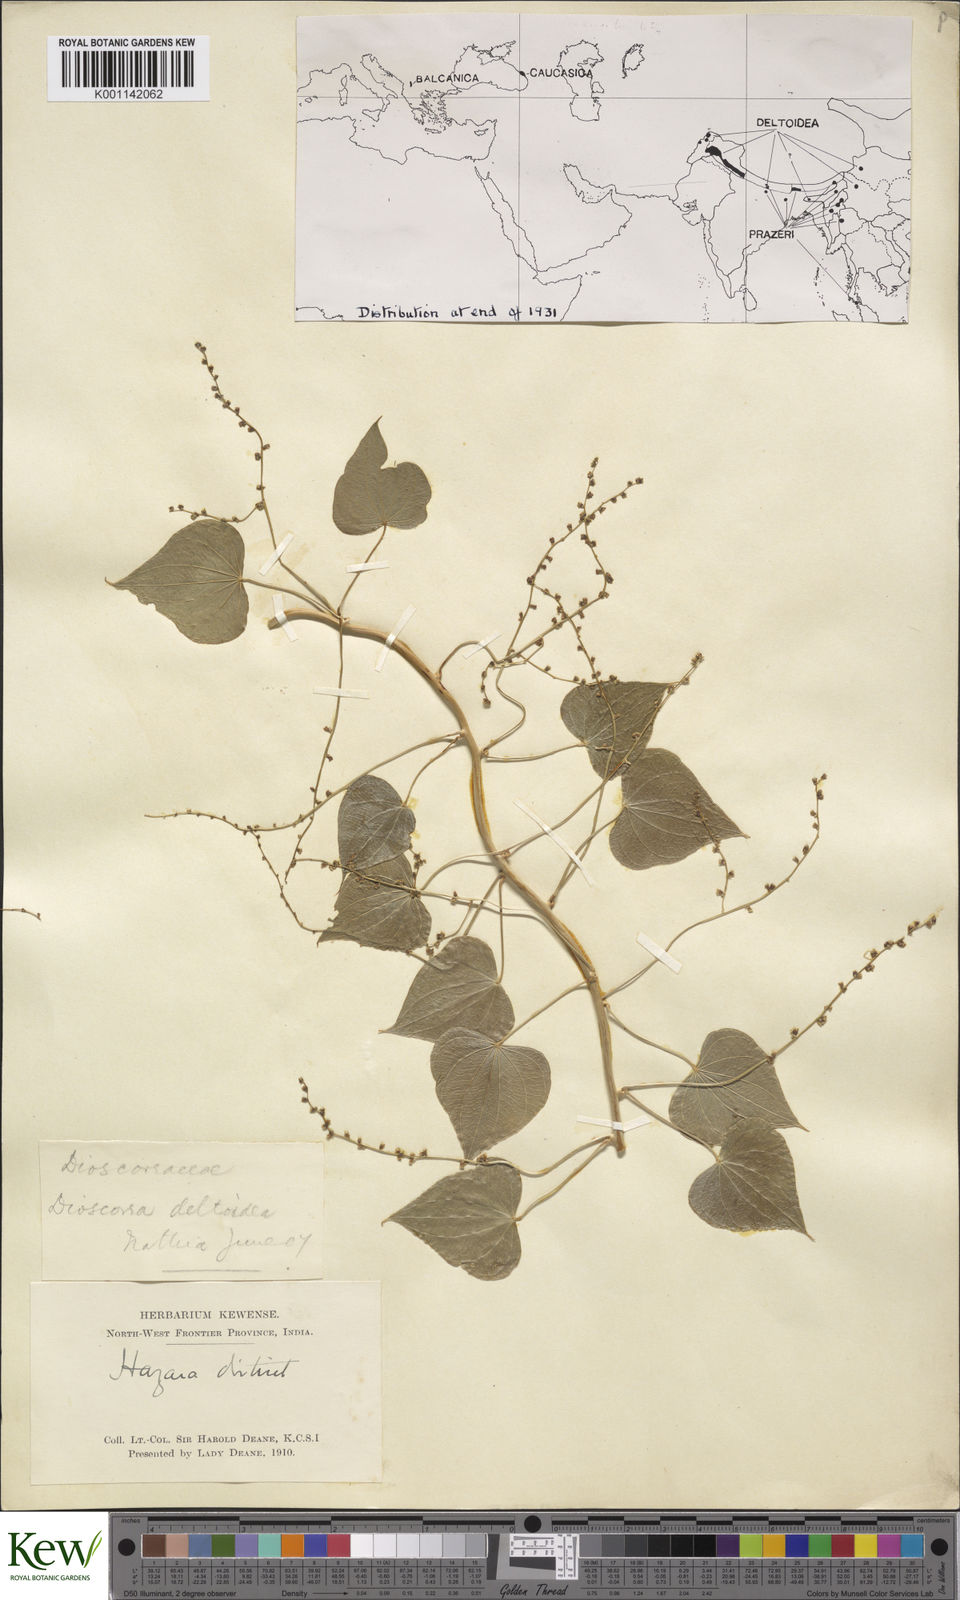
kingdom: Plantae
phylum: Tracheophyta
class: Liliopsida
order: Dioscoreales
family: Dioscoreaceae
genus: Dioscorea
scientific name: Dioscorea deltoidea
